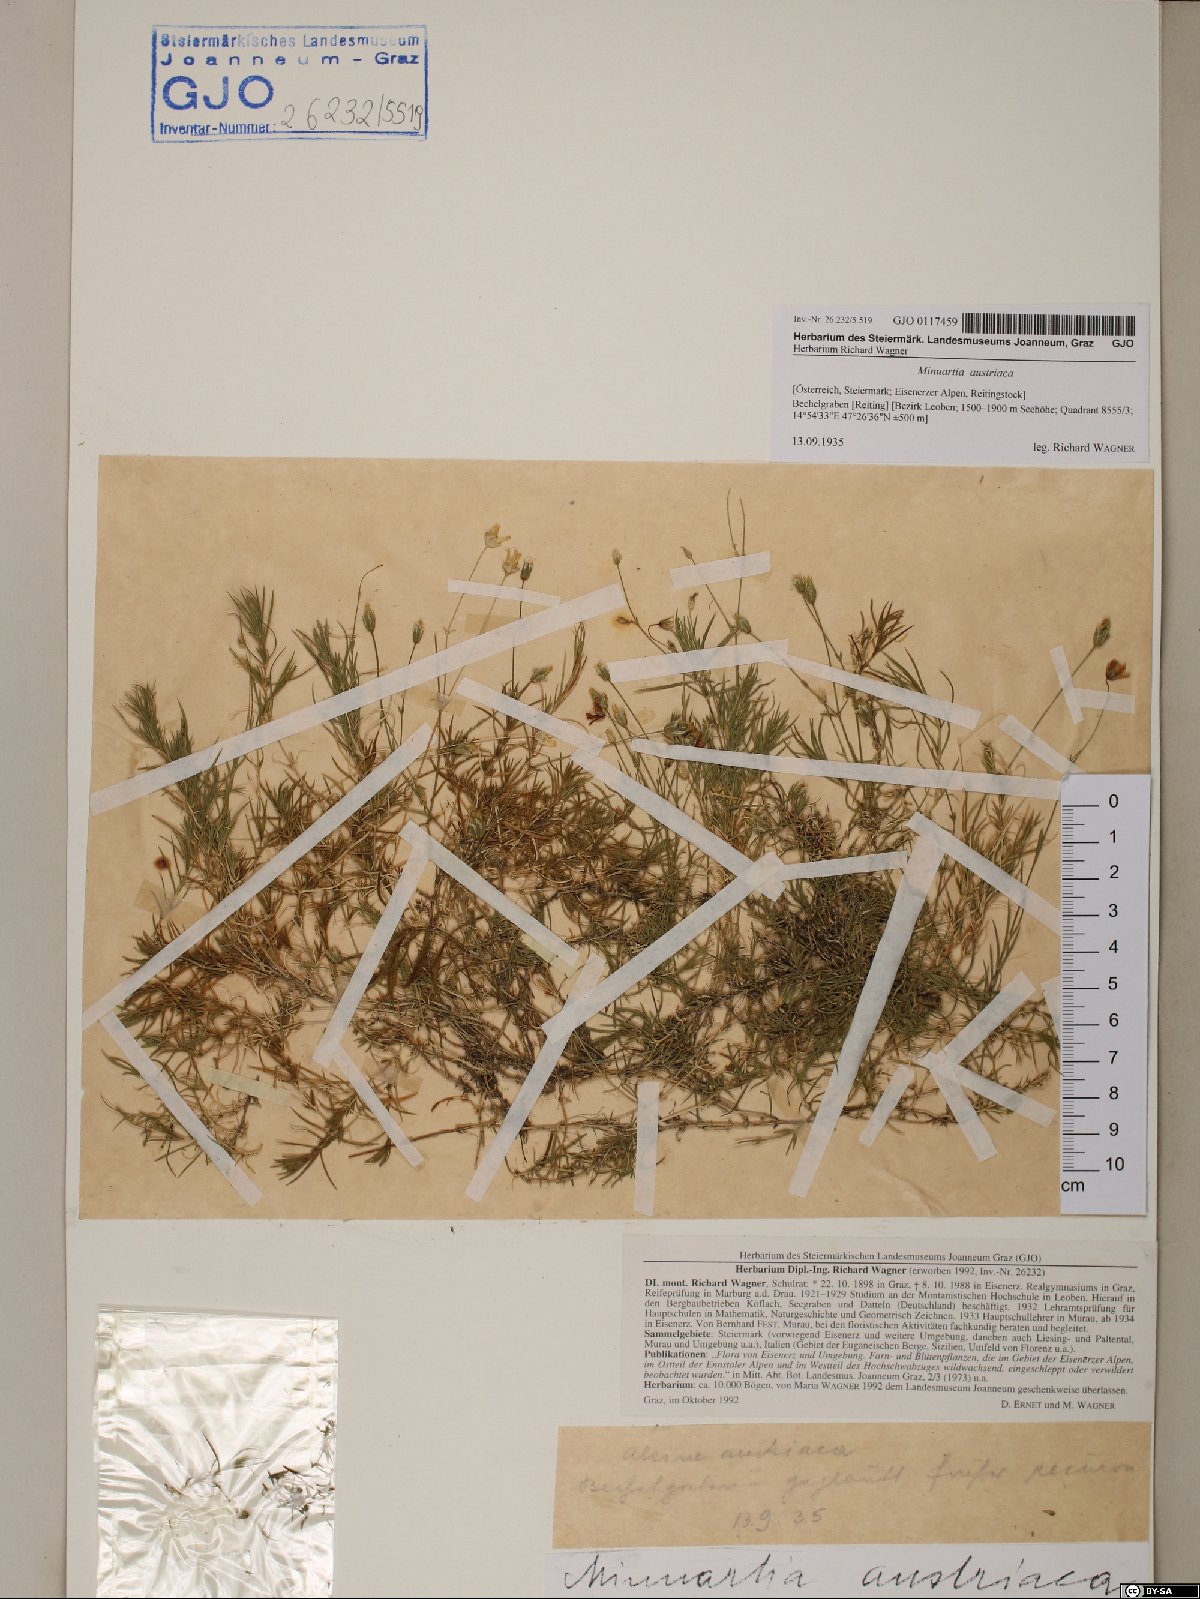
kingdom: Plantae
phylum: Tracheophyta
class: Magnoliopsida
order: Caryophyllales
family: Caryophyllaceae
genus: Sabulina
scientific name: Sabulina austriaca
